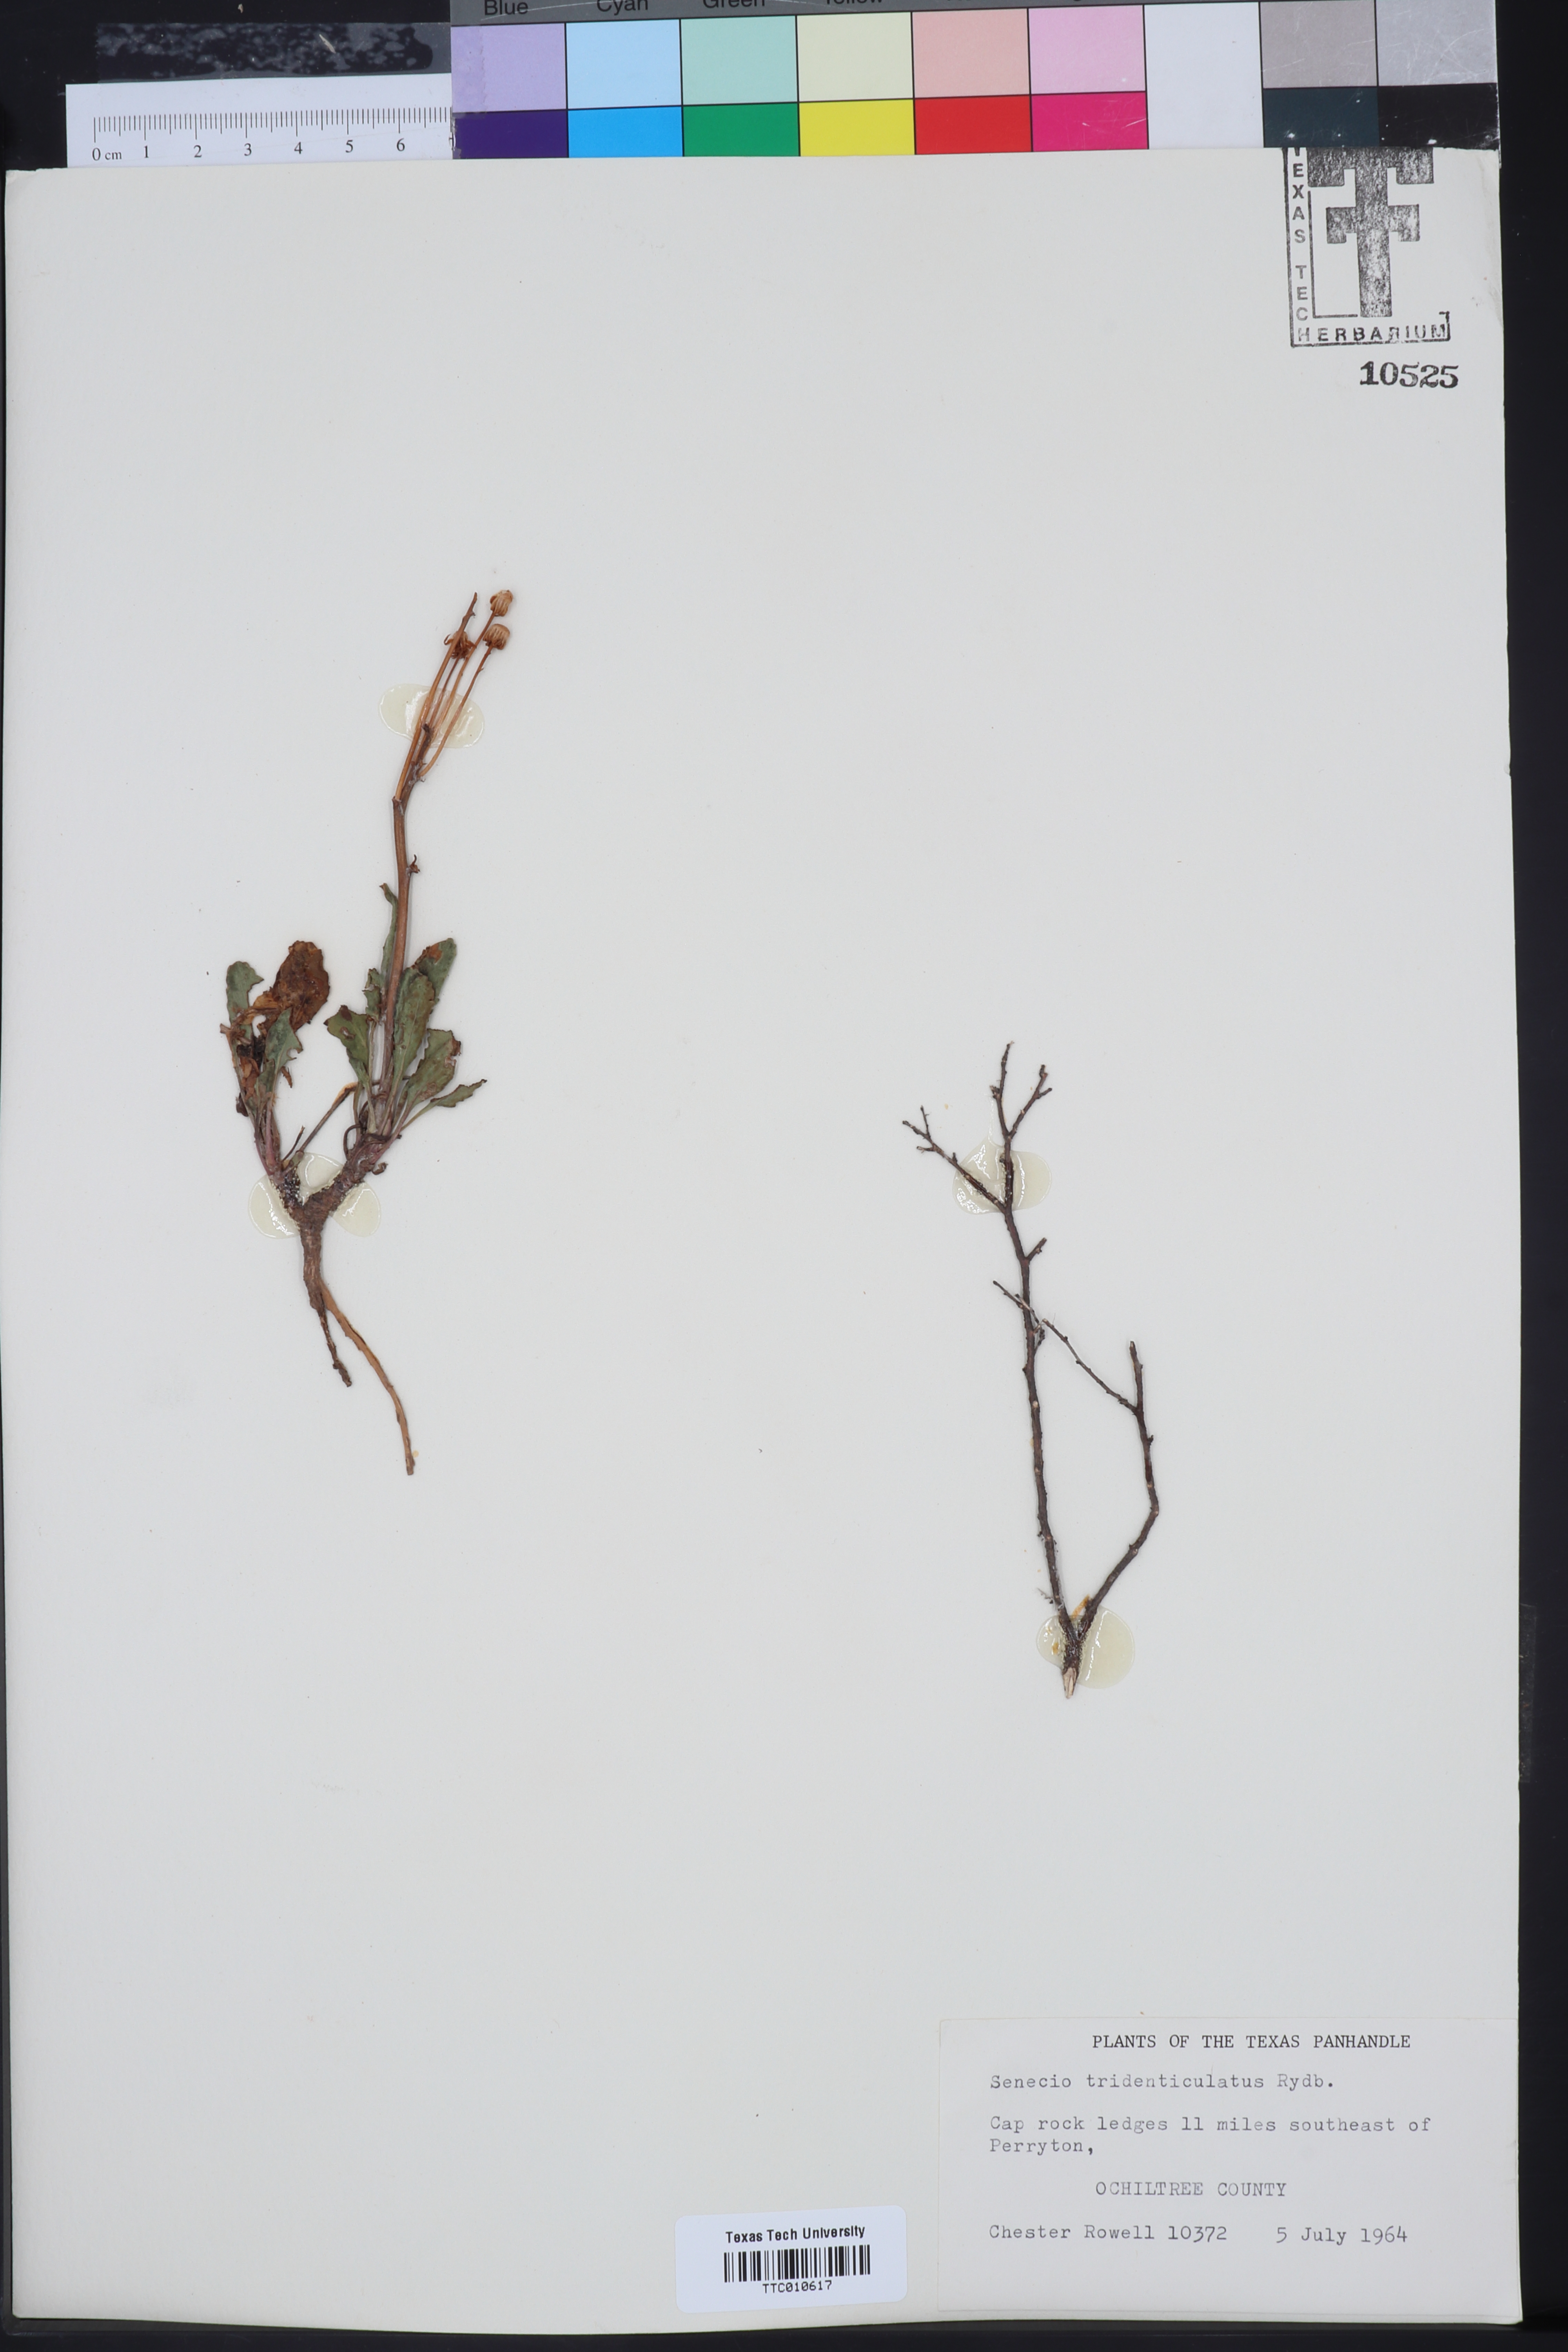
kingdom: Plantae
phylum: Tracheophyta
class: Magnoliopsida
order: Asterales
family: Asteraceae
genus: Packera
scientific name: Packera thurberi
